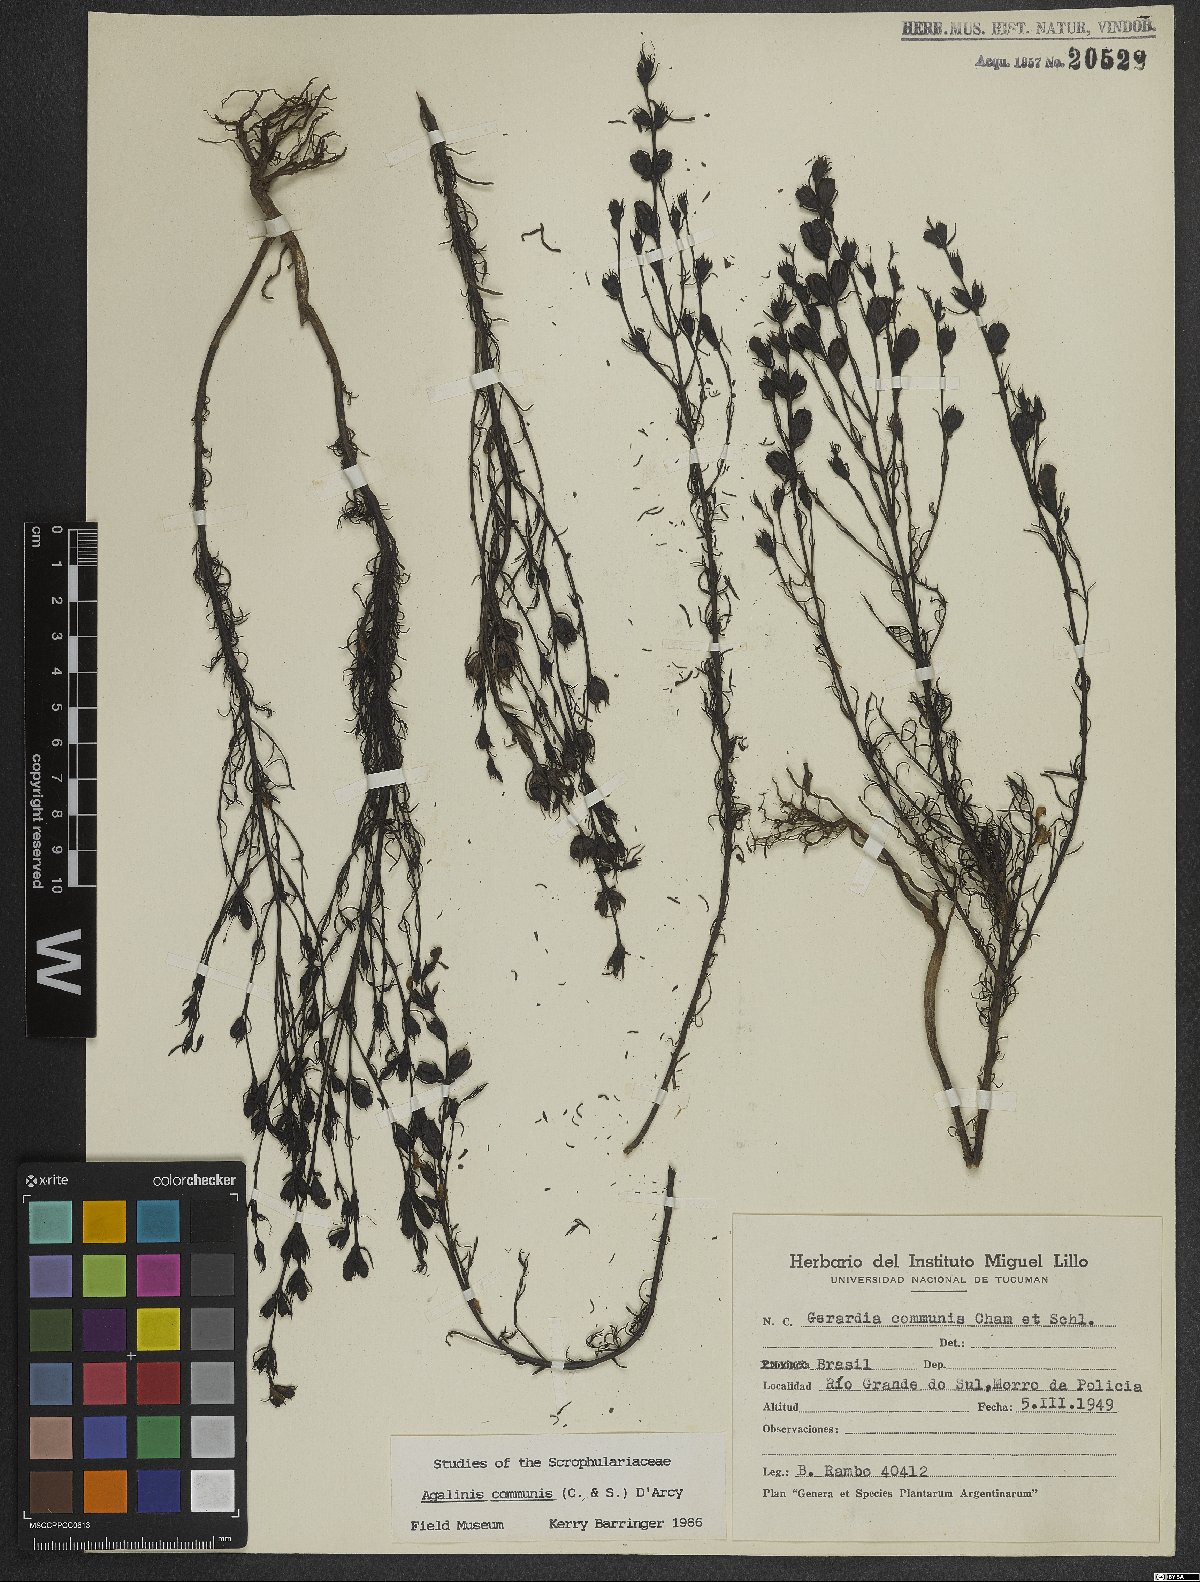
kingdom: Plantae
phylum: Tracheophyta
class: Magnoliopsida
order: Lamiales
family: Scrophulariaceae
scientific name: Scrophulariaceae
